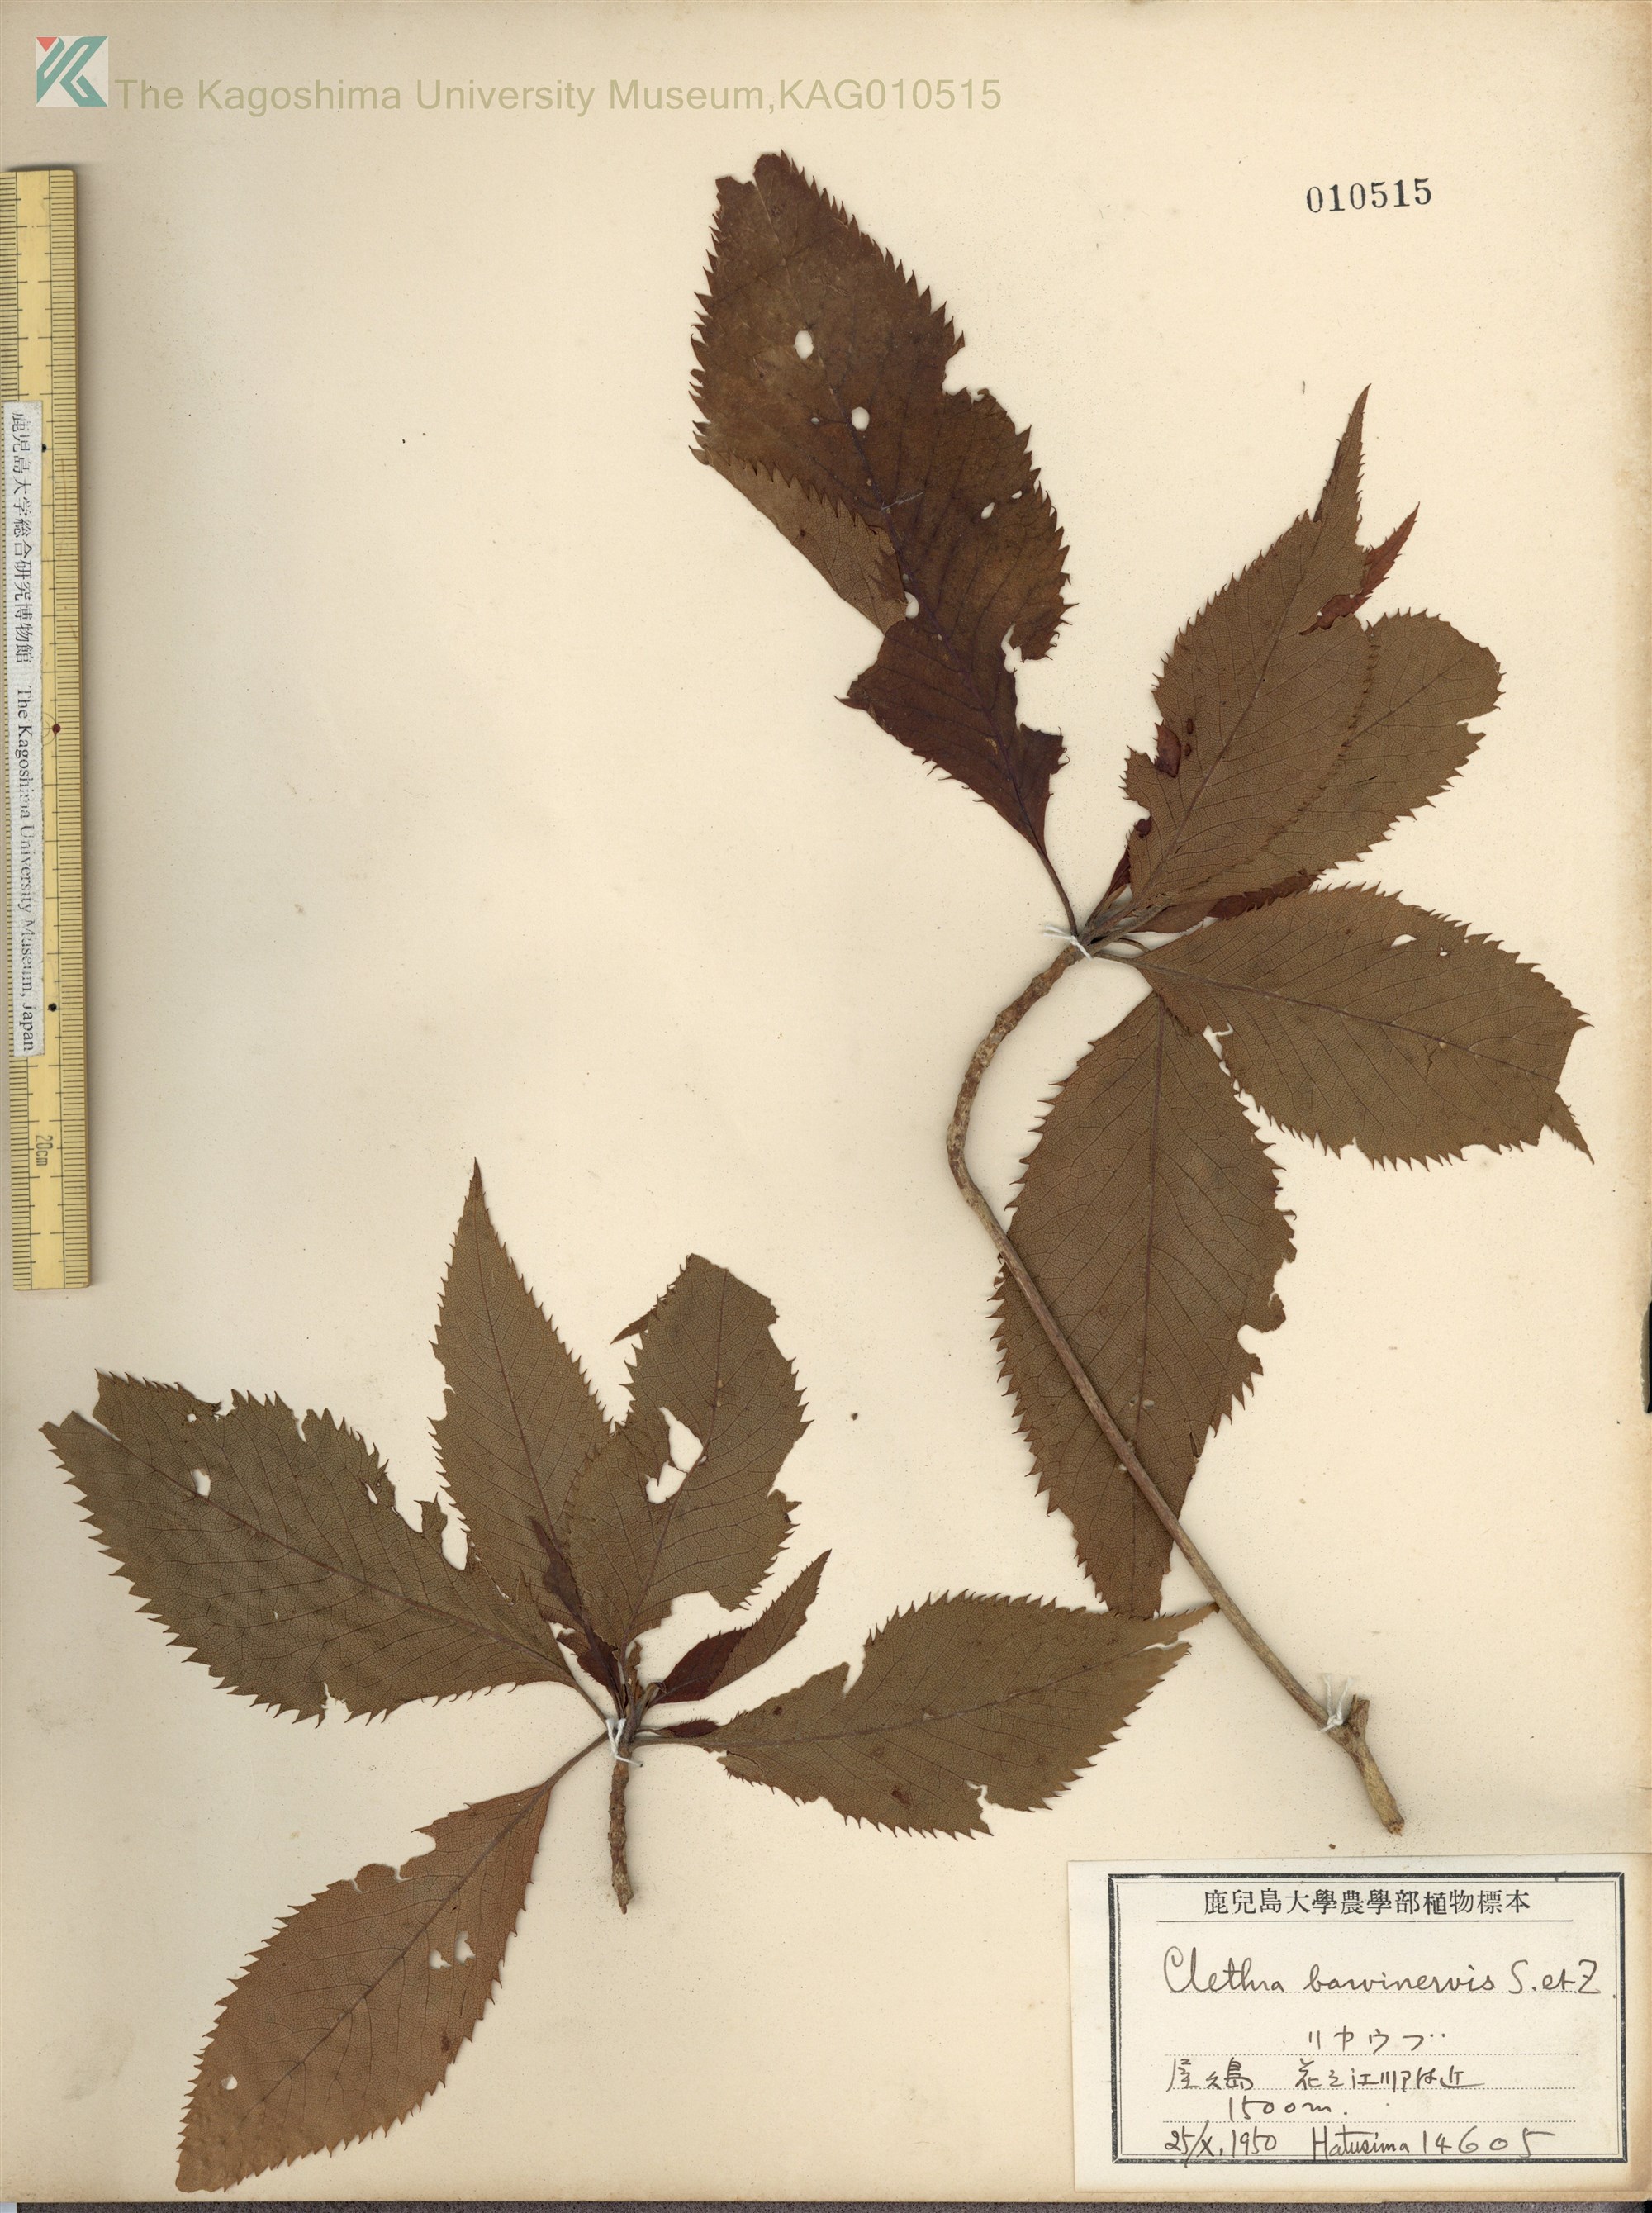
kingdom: Plantae
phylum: Tracheophyta
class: Magnoliopsida
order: Ericales
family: Clethraceae
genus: Clethra
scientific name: Clethra barbinervis
